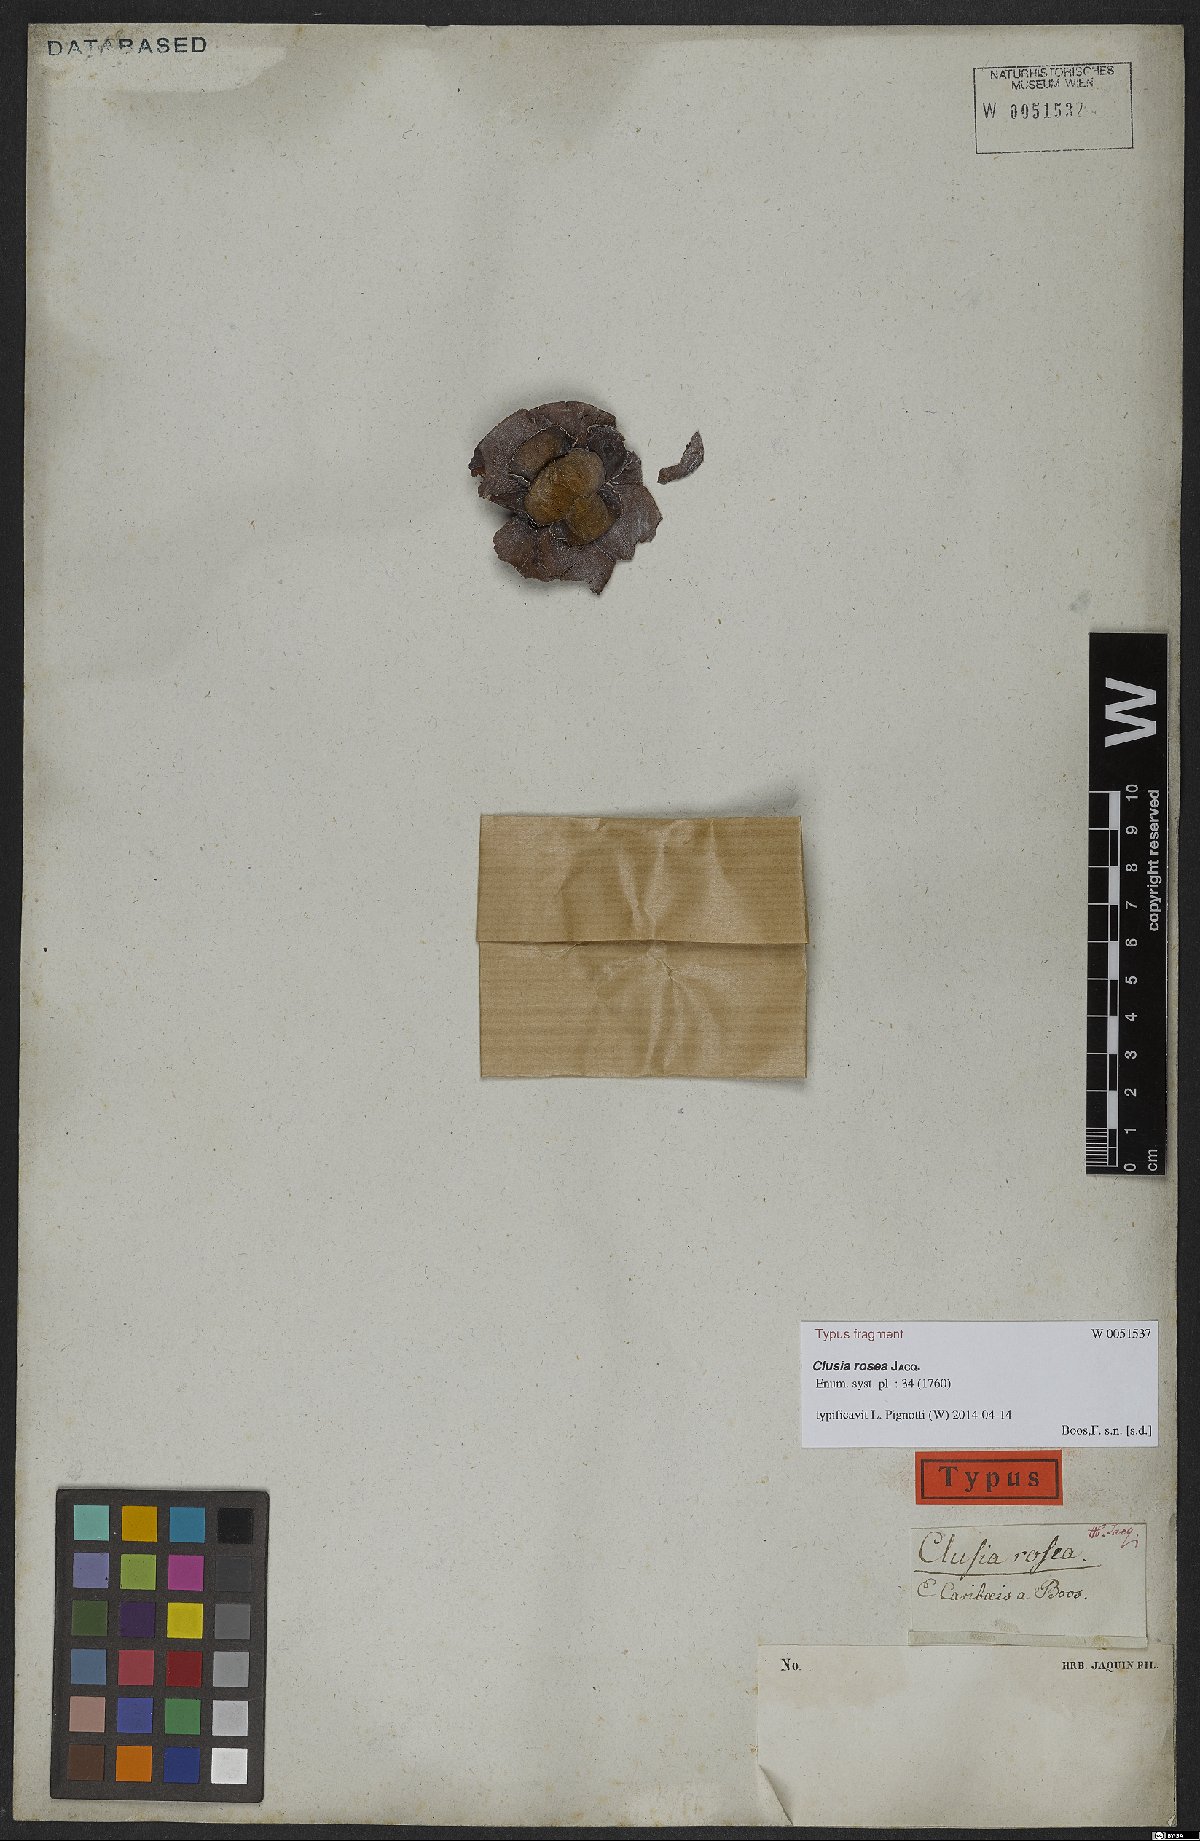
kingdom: Plantae
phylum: Tracheophyta
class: Magnoliopsida
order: Malpighiales
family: Clusiaceae
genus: Clusia
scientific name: Clusia rosea
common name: Scotch attorney
